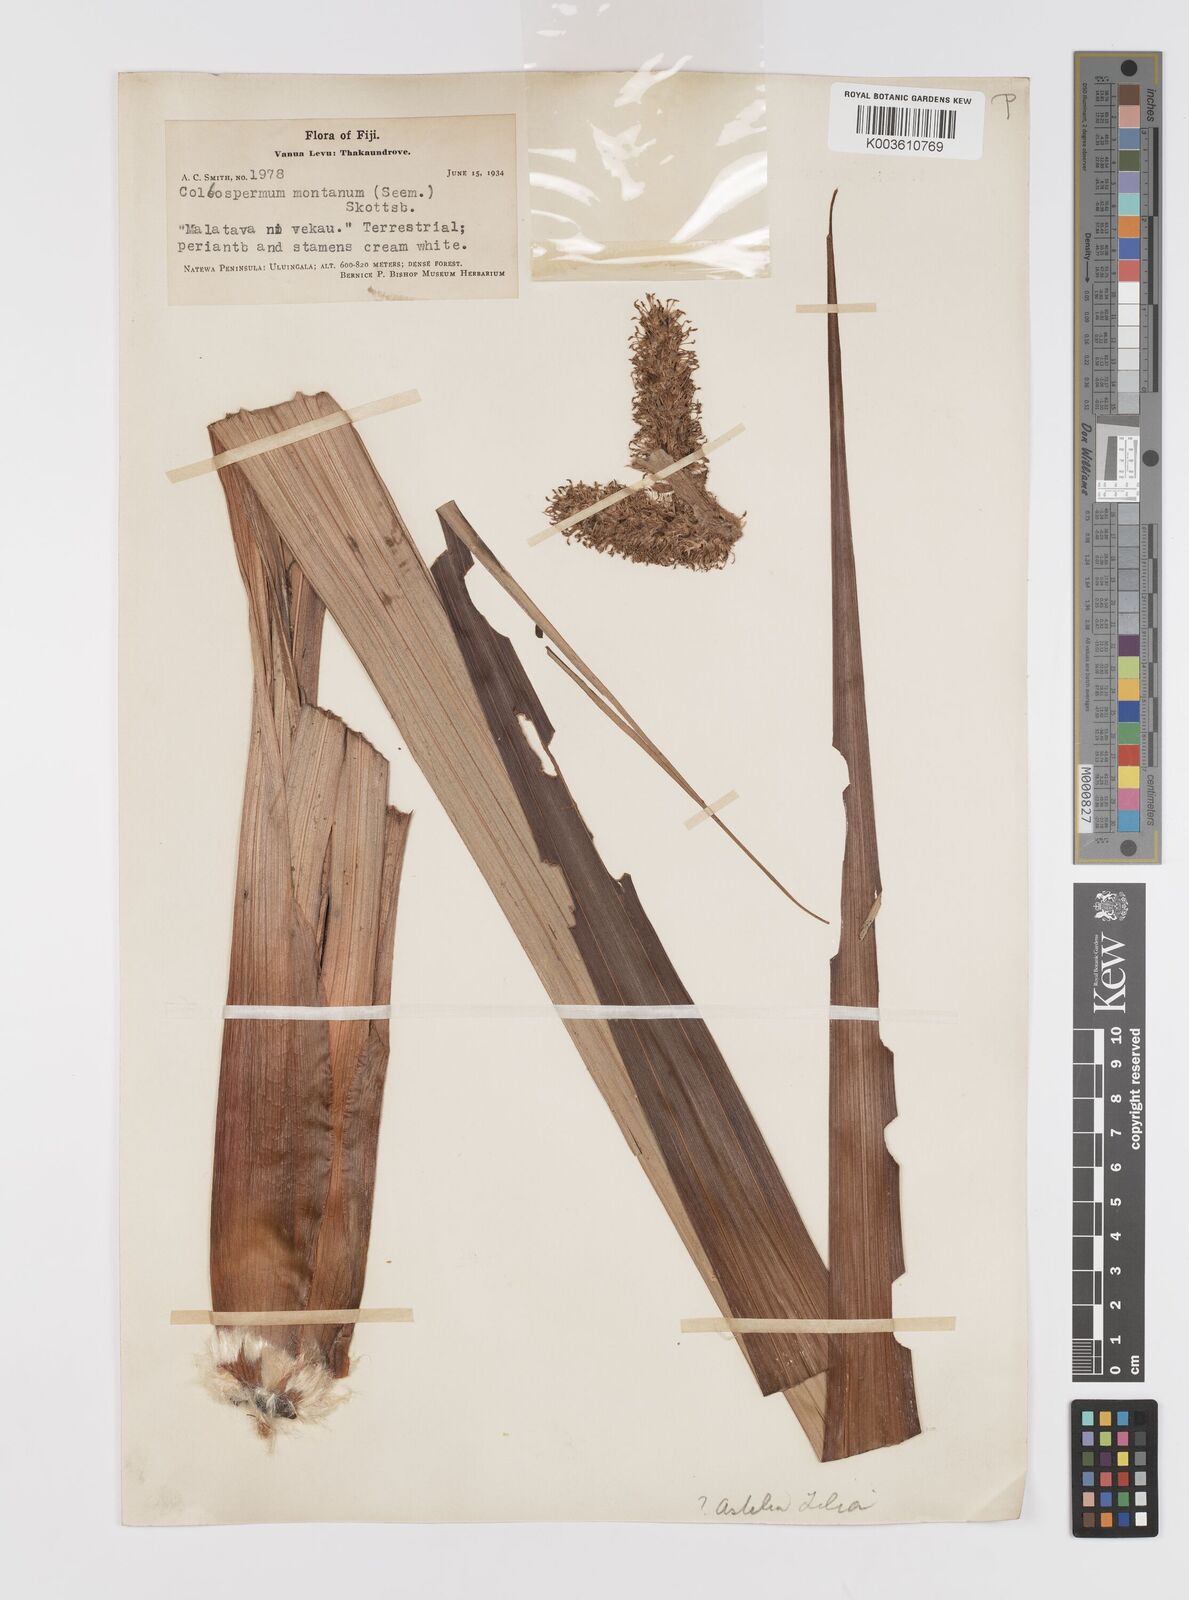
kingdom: Plantae
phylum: Tracheophyta
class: Liliopsida
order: Asparagales
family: Asteliaceae
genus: Astelia
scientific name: Astelia montana
